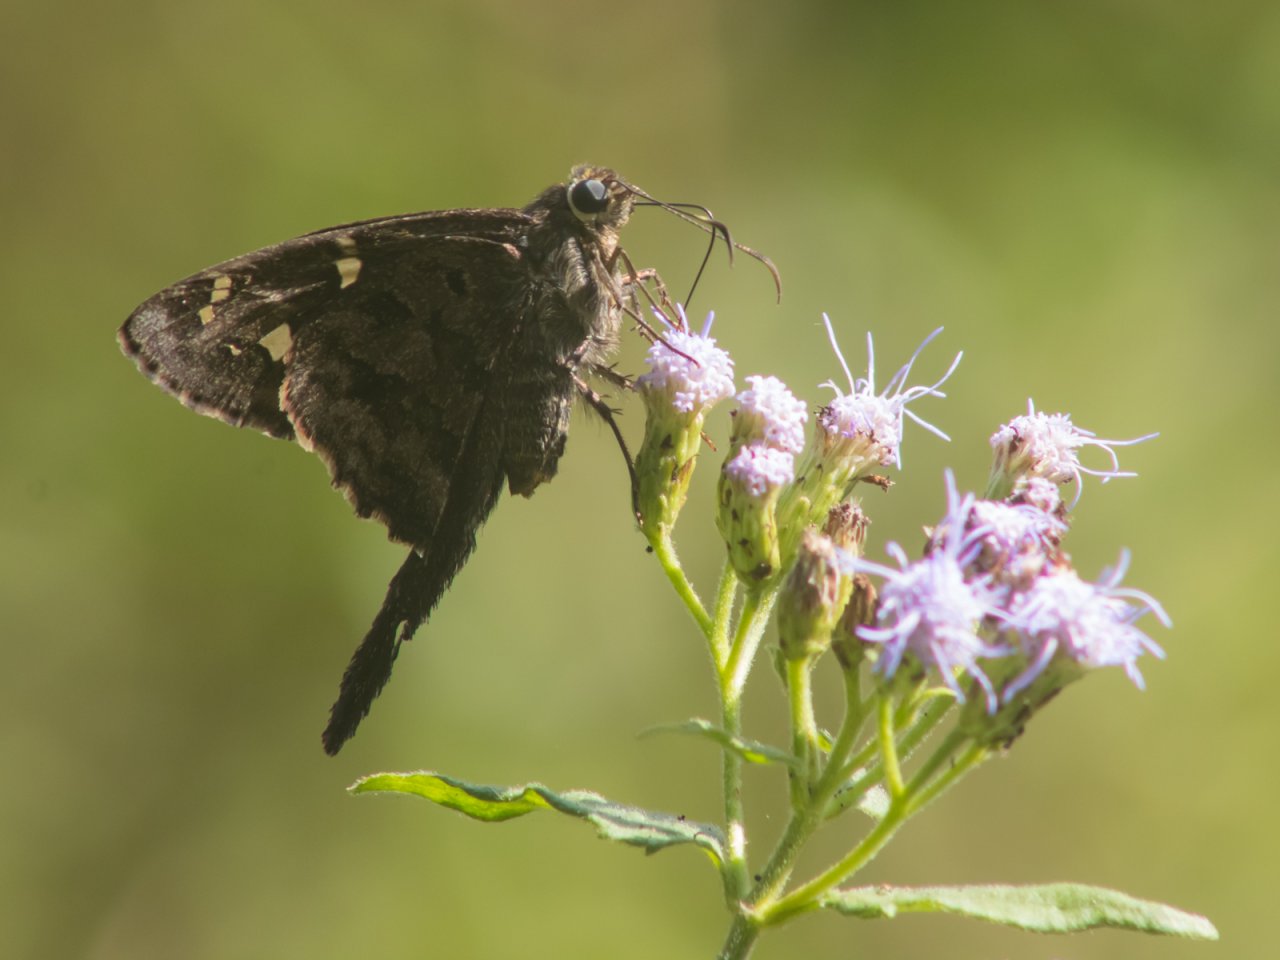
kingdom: Animalia
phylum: Arthropoda
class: Insecta
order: Lepidoptera
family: Hesperiidae
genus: Urbanus
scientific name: Urbanus dorantes
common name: Dorantes Longtail
